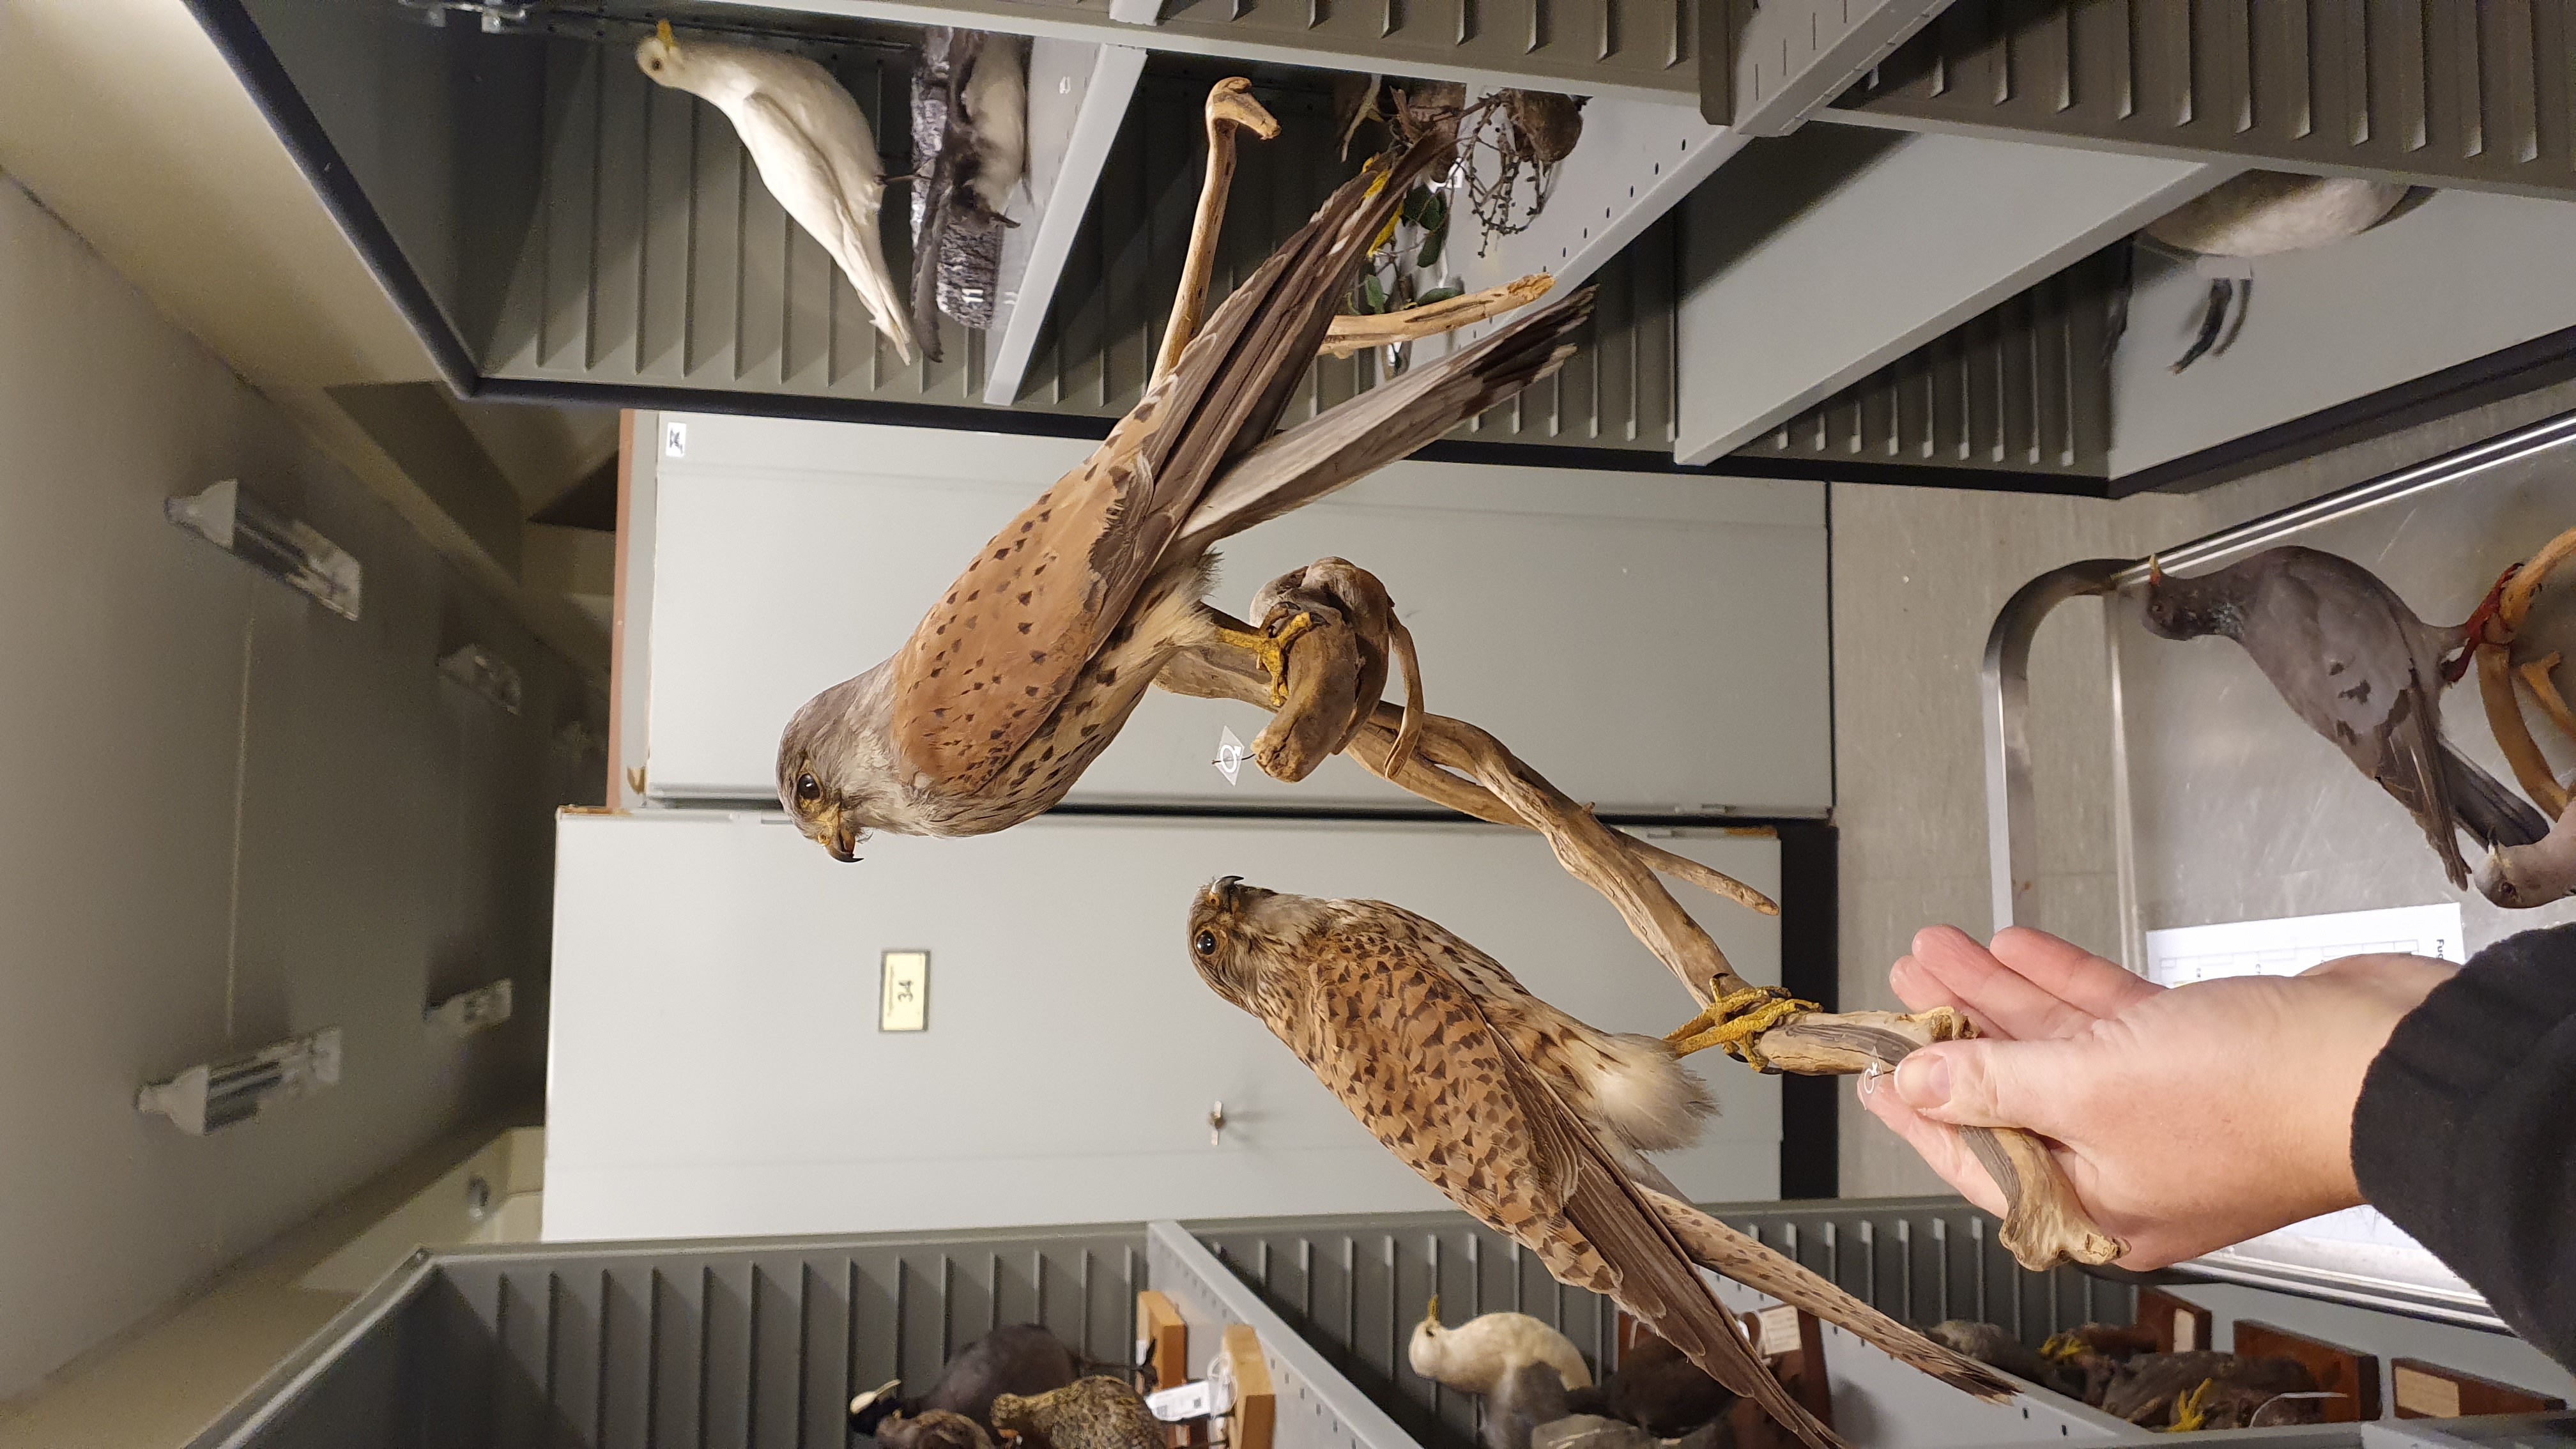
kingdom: Animalia
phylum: Chordata
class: Aves
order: Falconiformes
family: Falconidae
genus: Falco
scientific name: Falco tinnunculus
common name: Common kestrel
